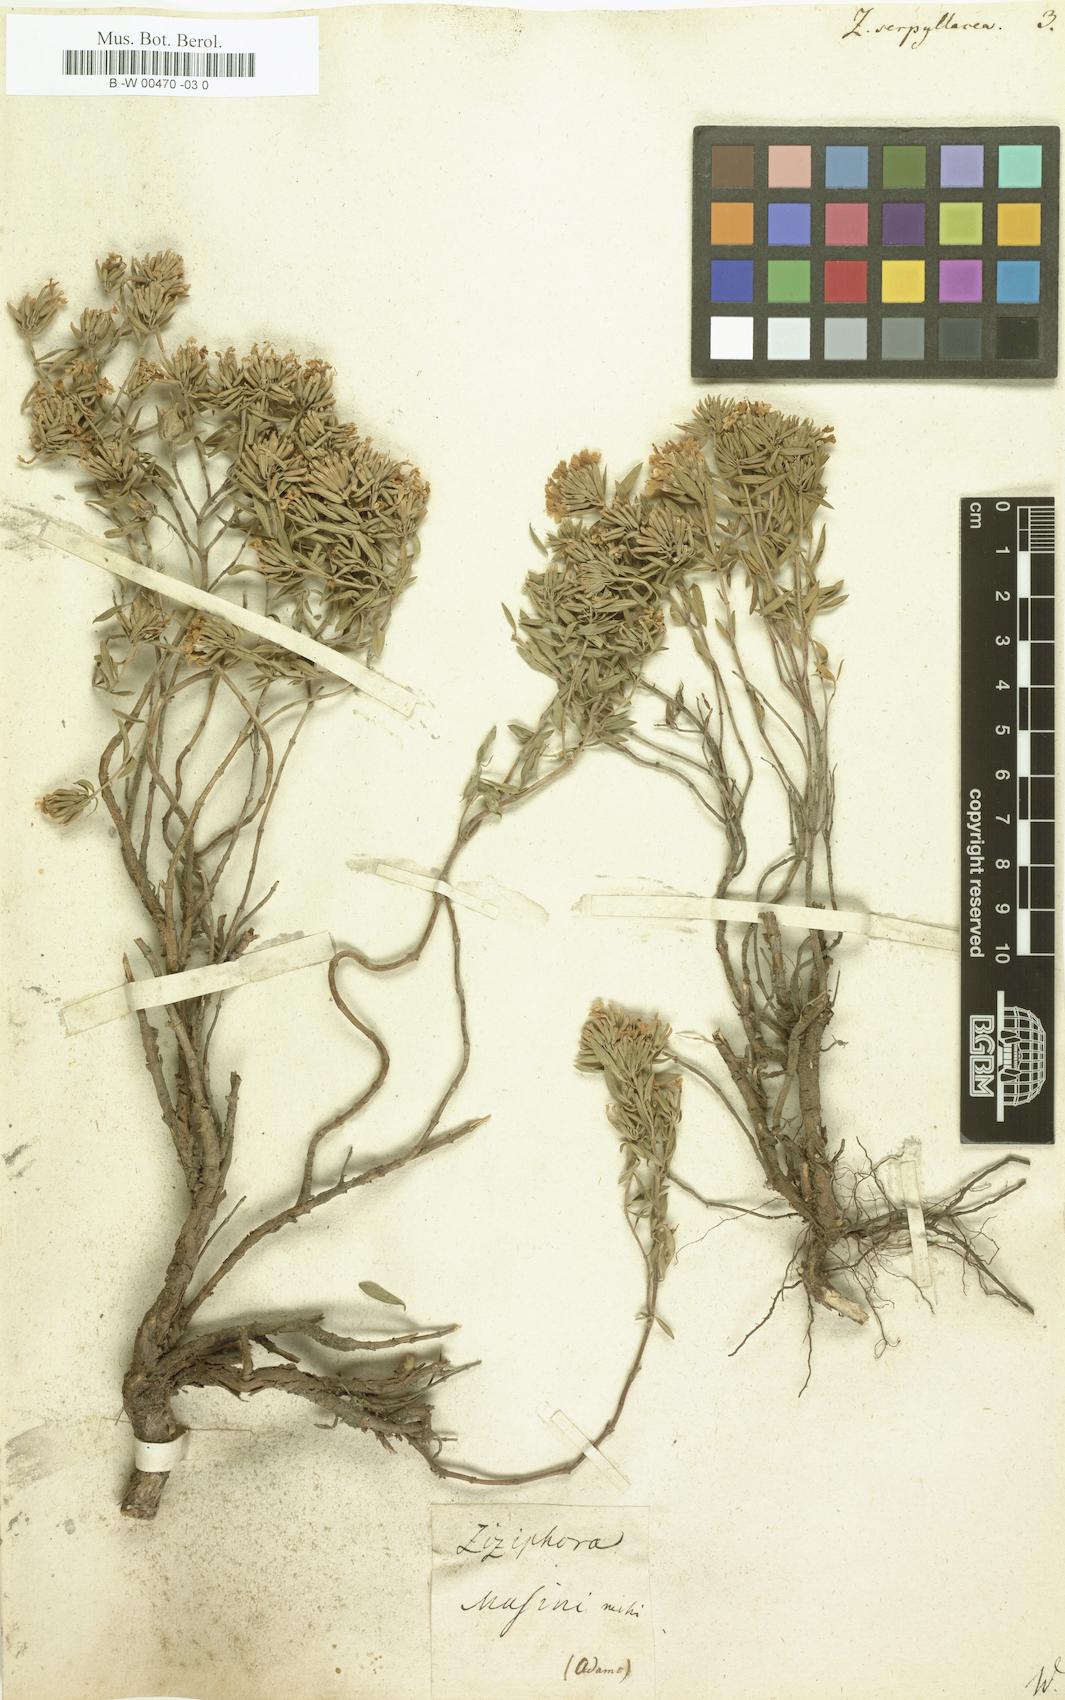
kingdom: Plantae
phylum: Tracheophyta
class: Magnoliopsida
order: Lamiales
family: Lamiaceae
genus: Ziziphora
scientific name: Ziziphora clinopodioides
